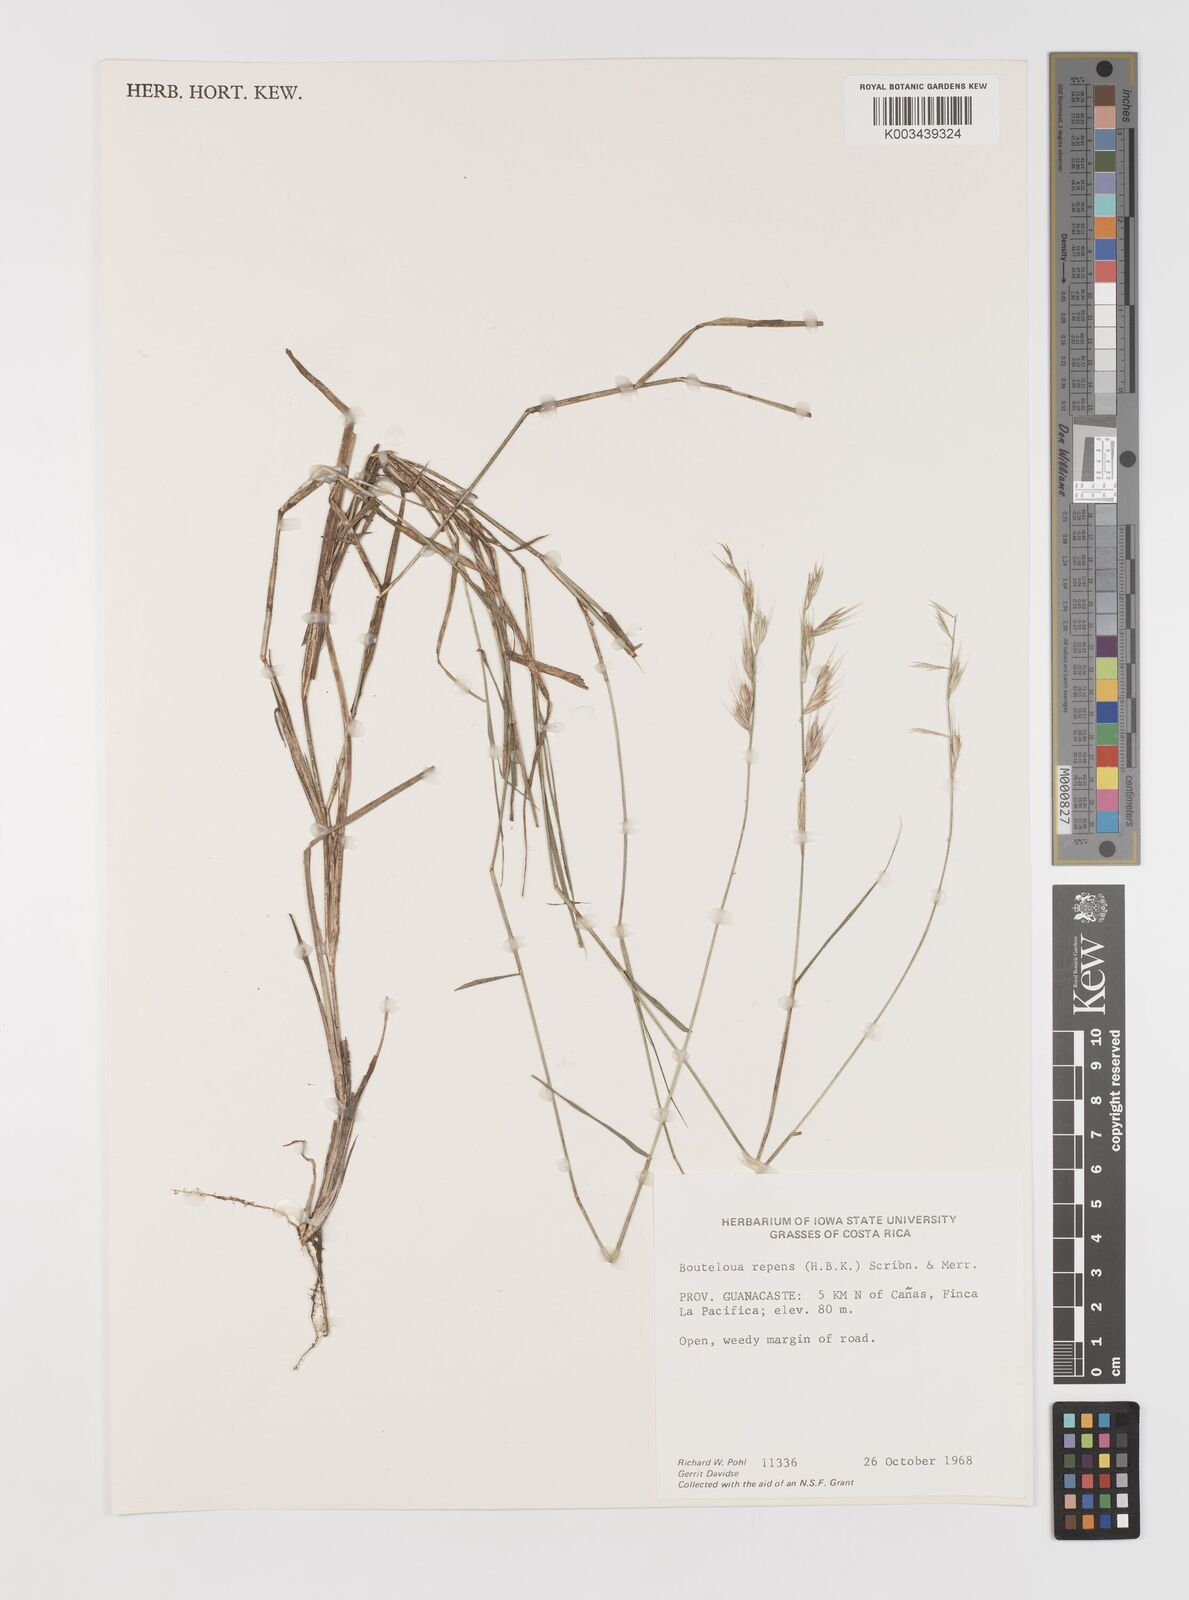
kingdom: Plantae
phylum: Tracheophyta
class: Liliopsida
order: Poales
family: Poaceae
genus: Bouteloua
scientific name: Bouteloua repens
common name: Slender grama
